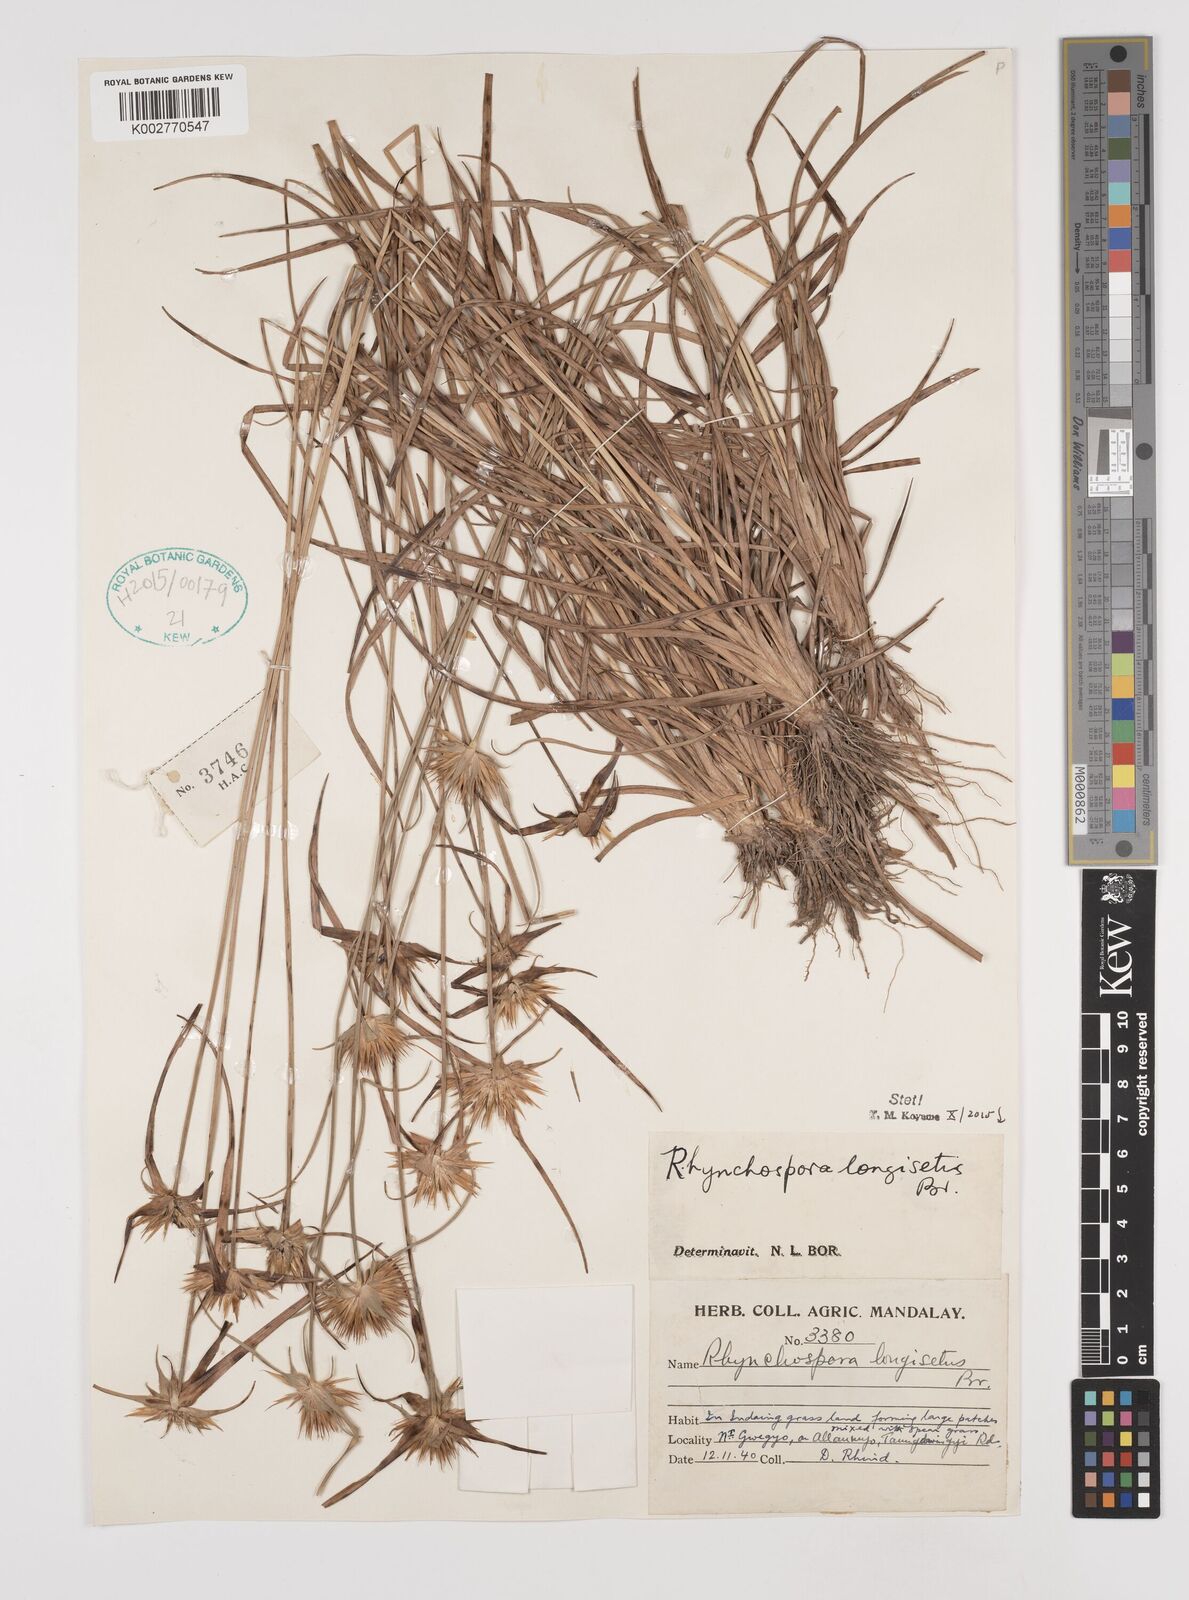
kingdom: Plantae
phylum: Tracheophyta
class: Liliopsida
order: Poales
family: Cyperaceae
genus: Rhynchospora
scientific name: Rhynchospora longisetis
